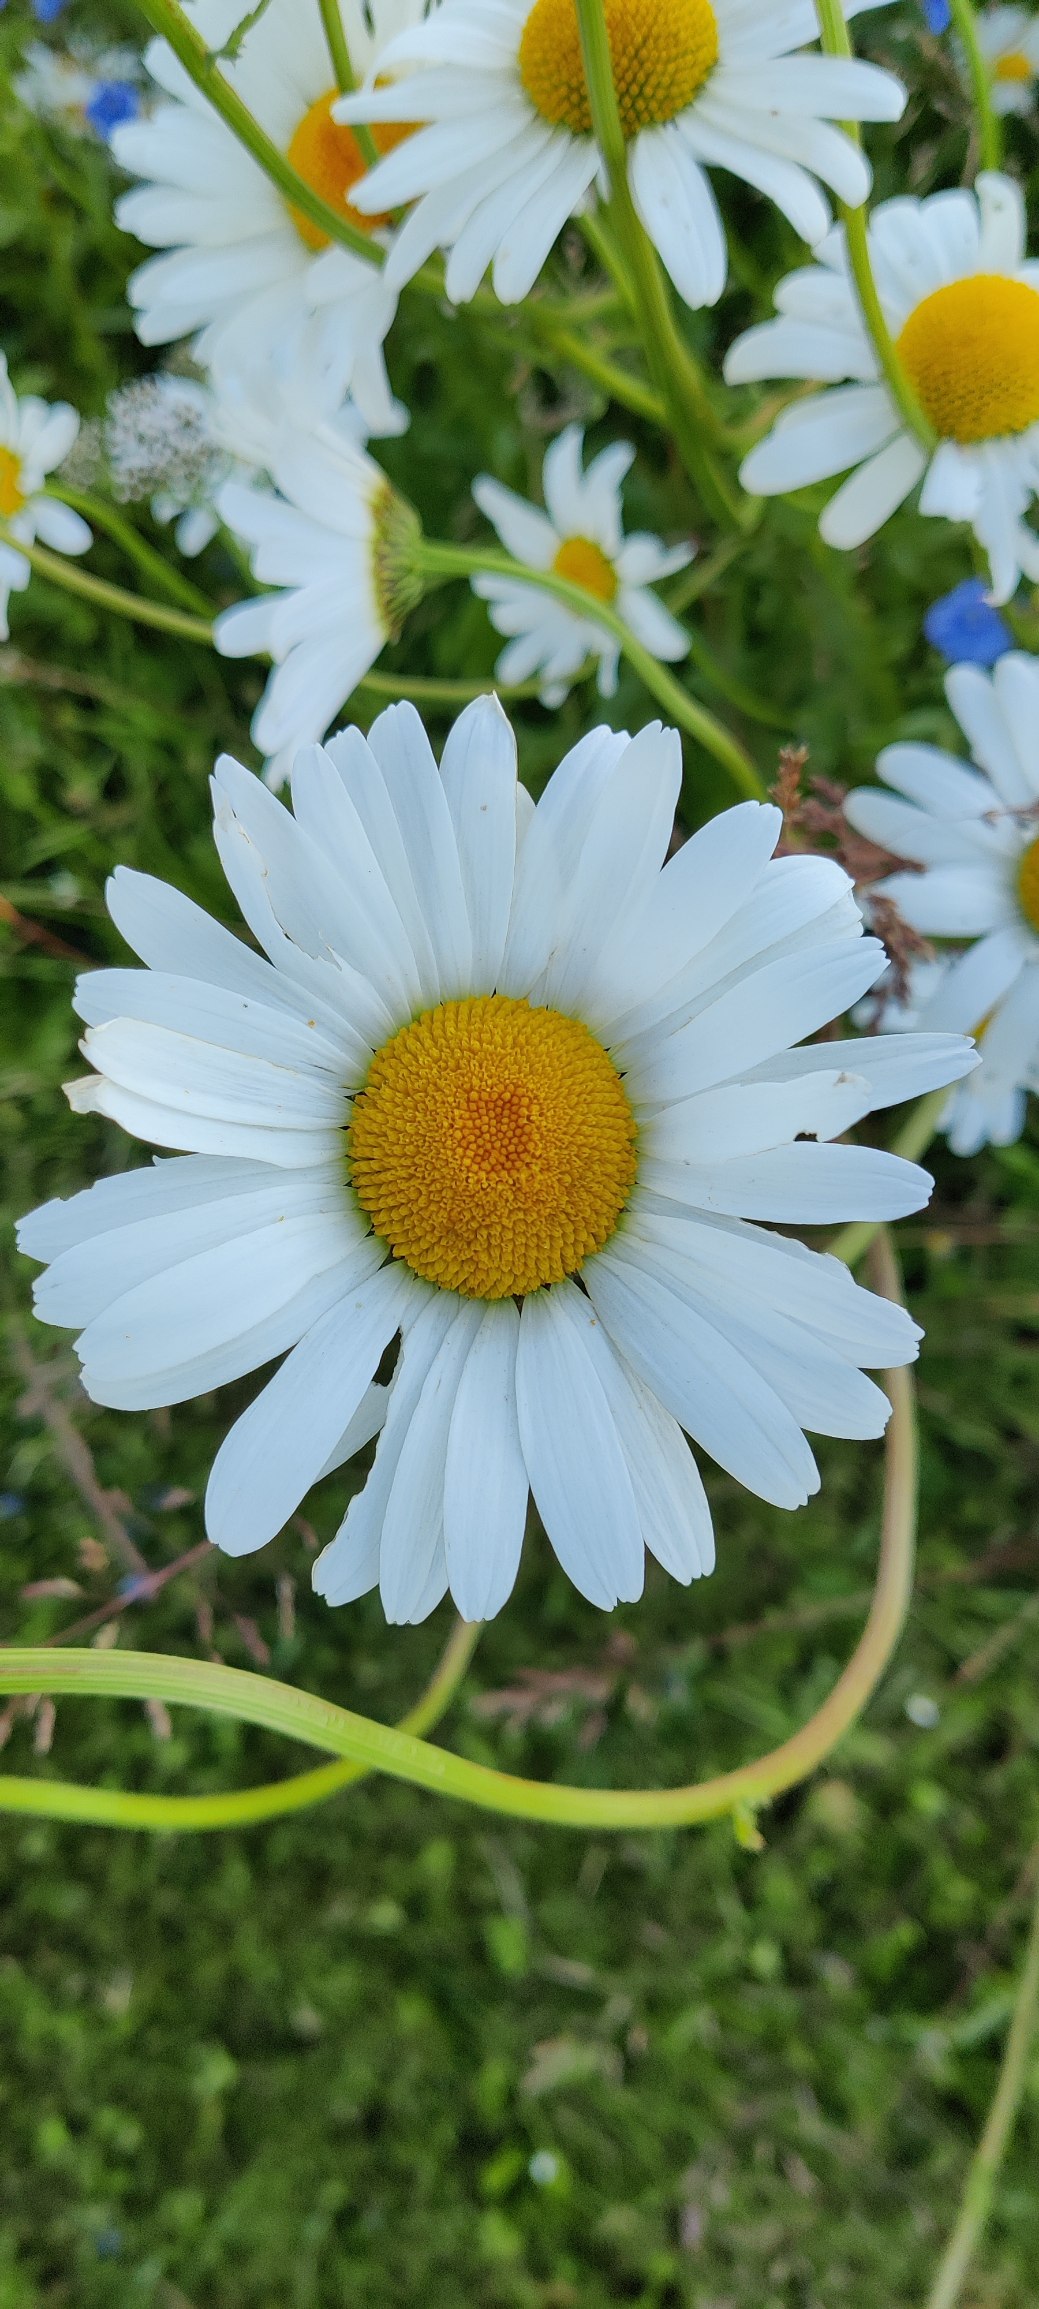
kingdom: Plantae
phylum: Tracheophyta
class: Magnoliopsida
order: Asterales
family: Asteraceae
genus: Leucanthemum
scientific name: Leucanthemum vulgare
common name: Hvid okseøje
